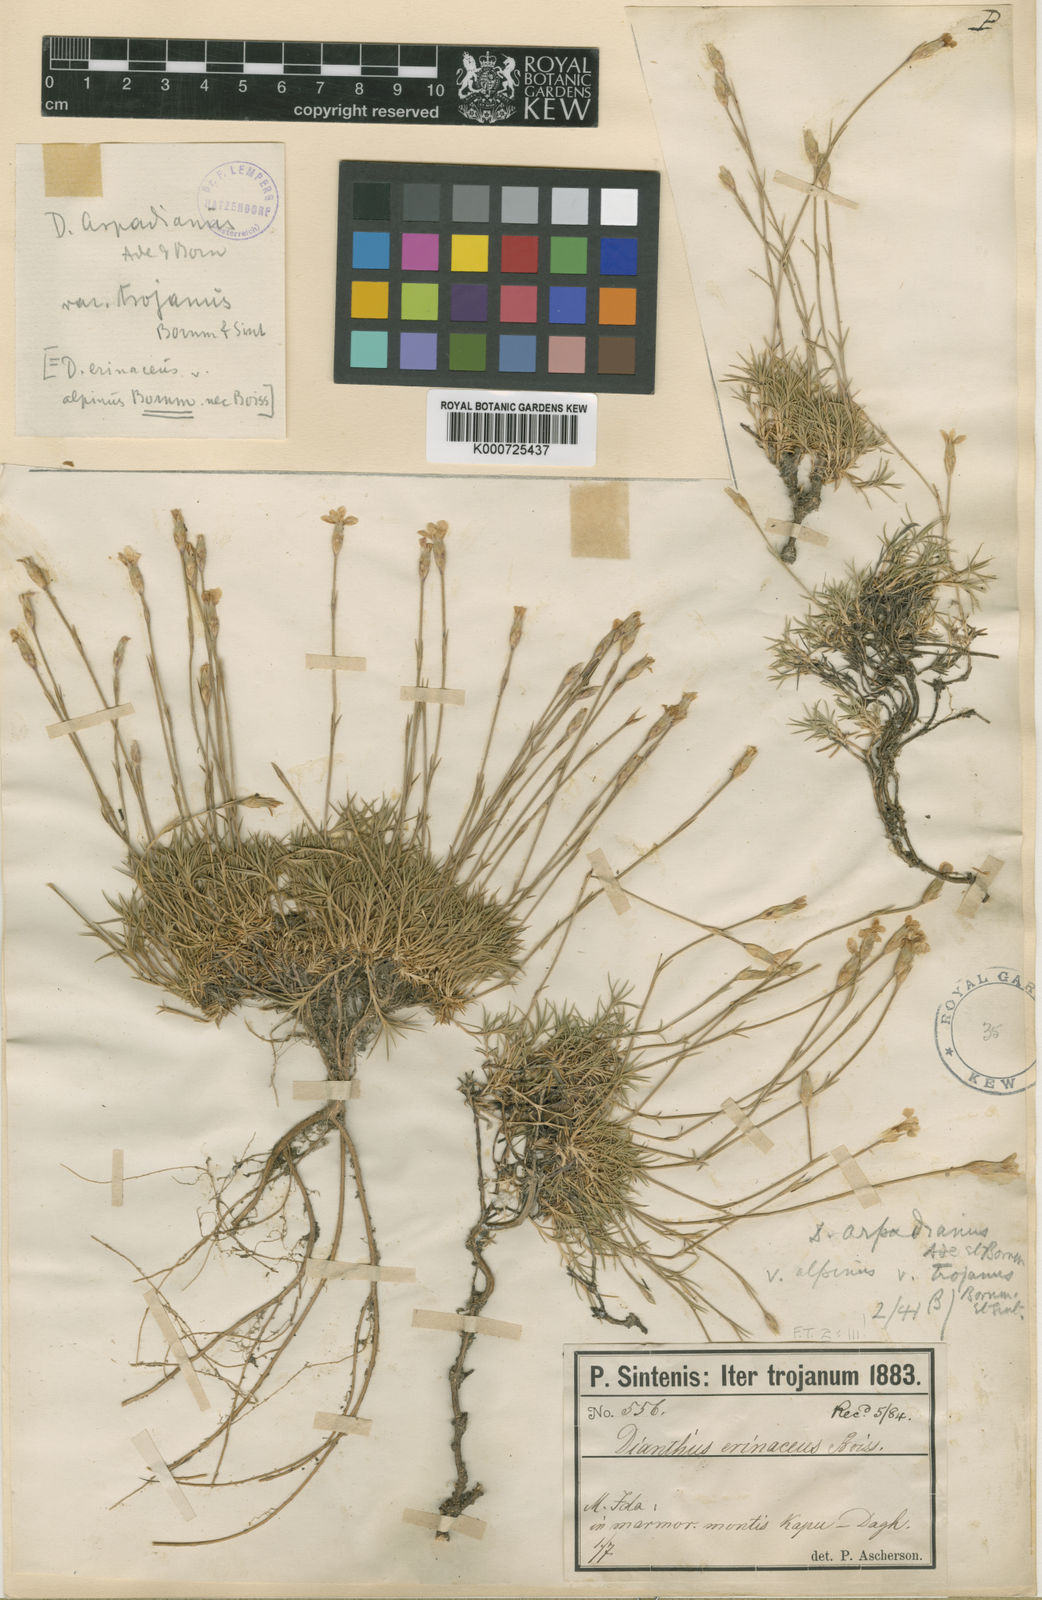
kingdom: Plantae
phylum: Tracheophyta
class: Magnoliopsida
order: Caryophyllales
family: Caryophyllaceae
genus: Dianthus
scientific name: Dianthus arpadianus
